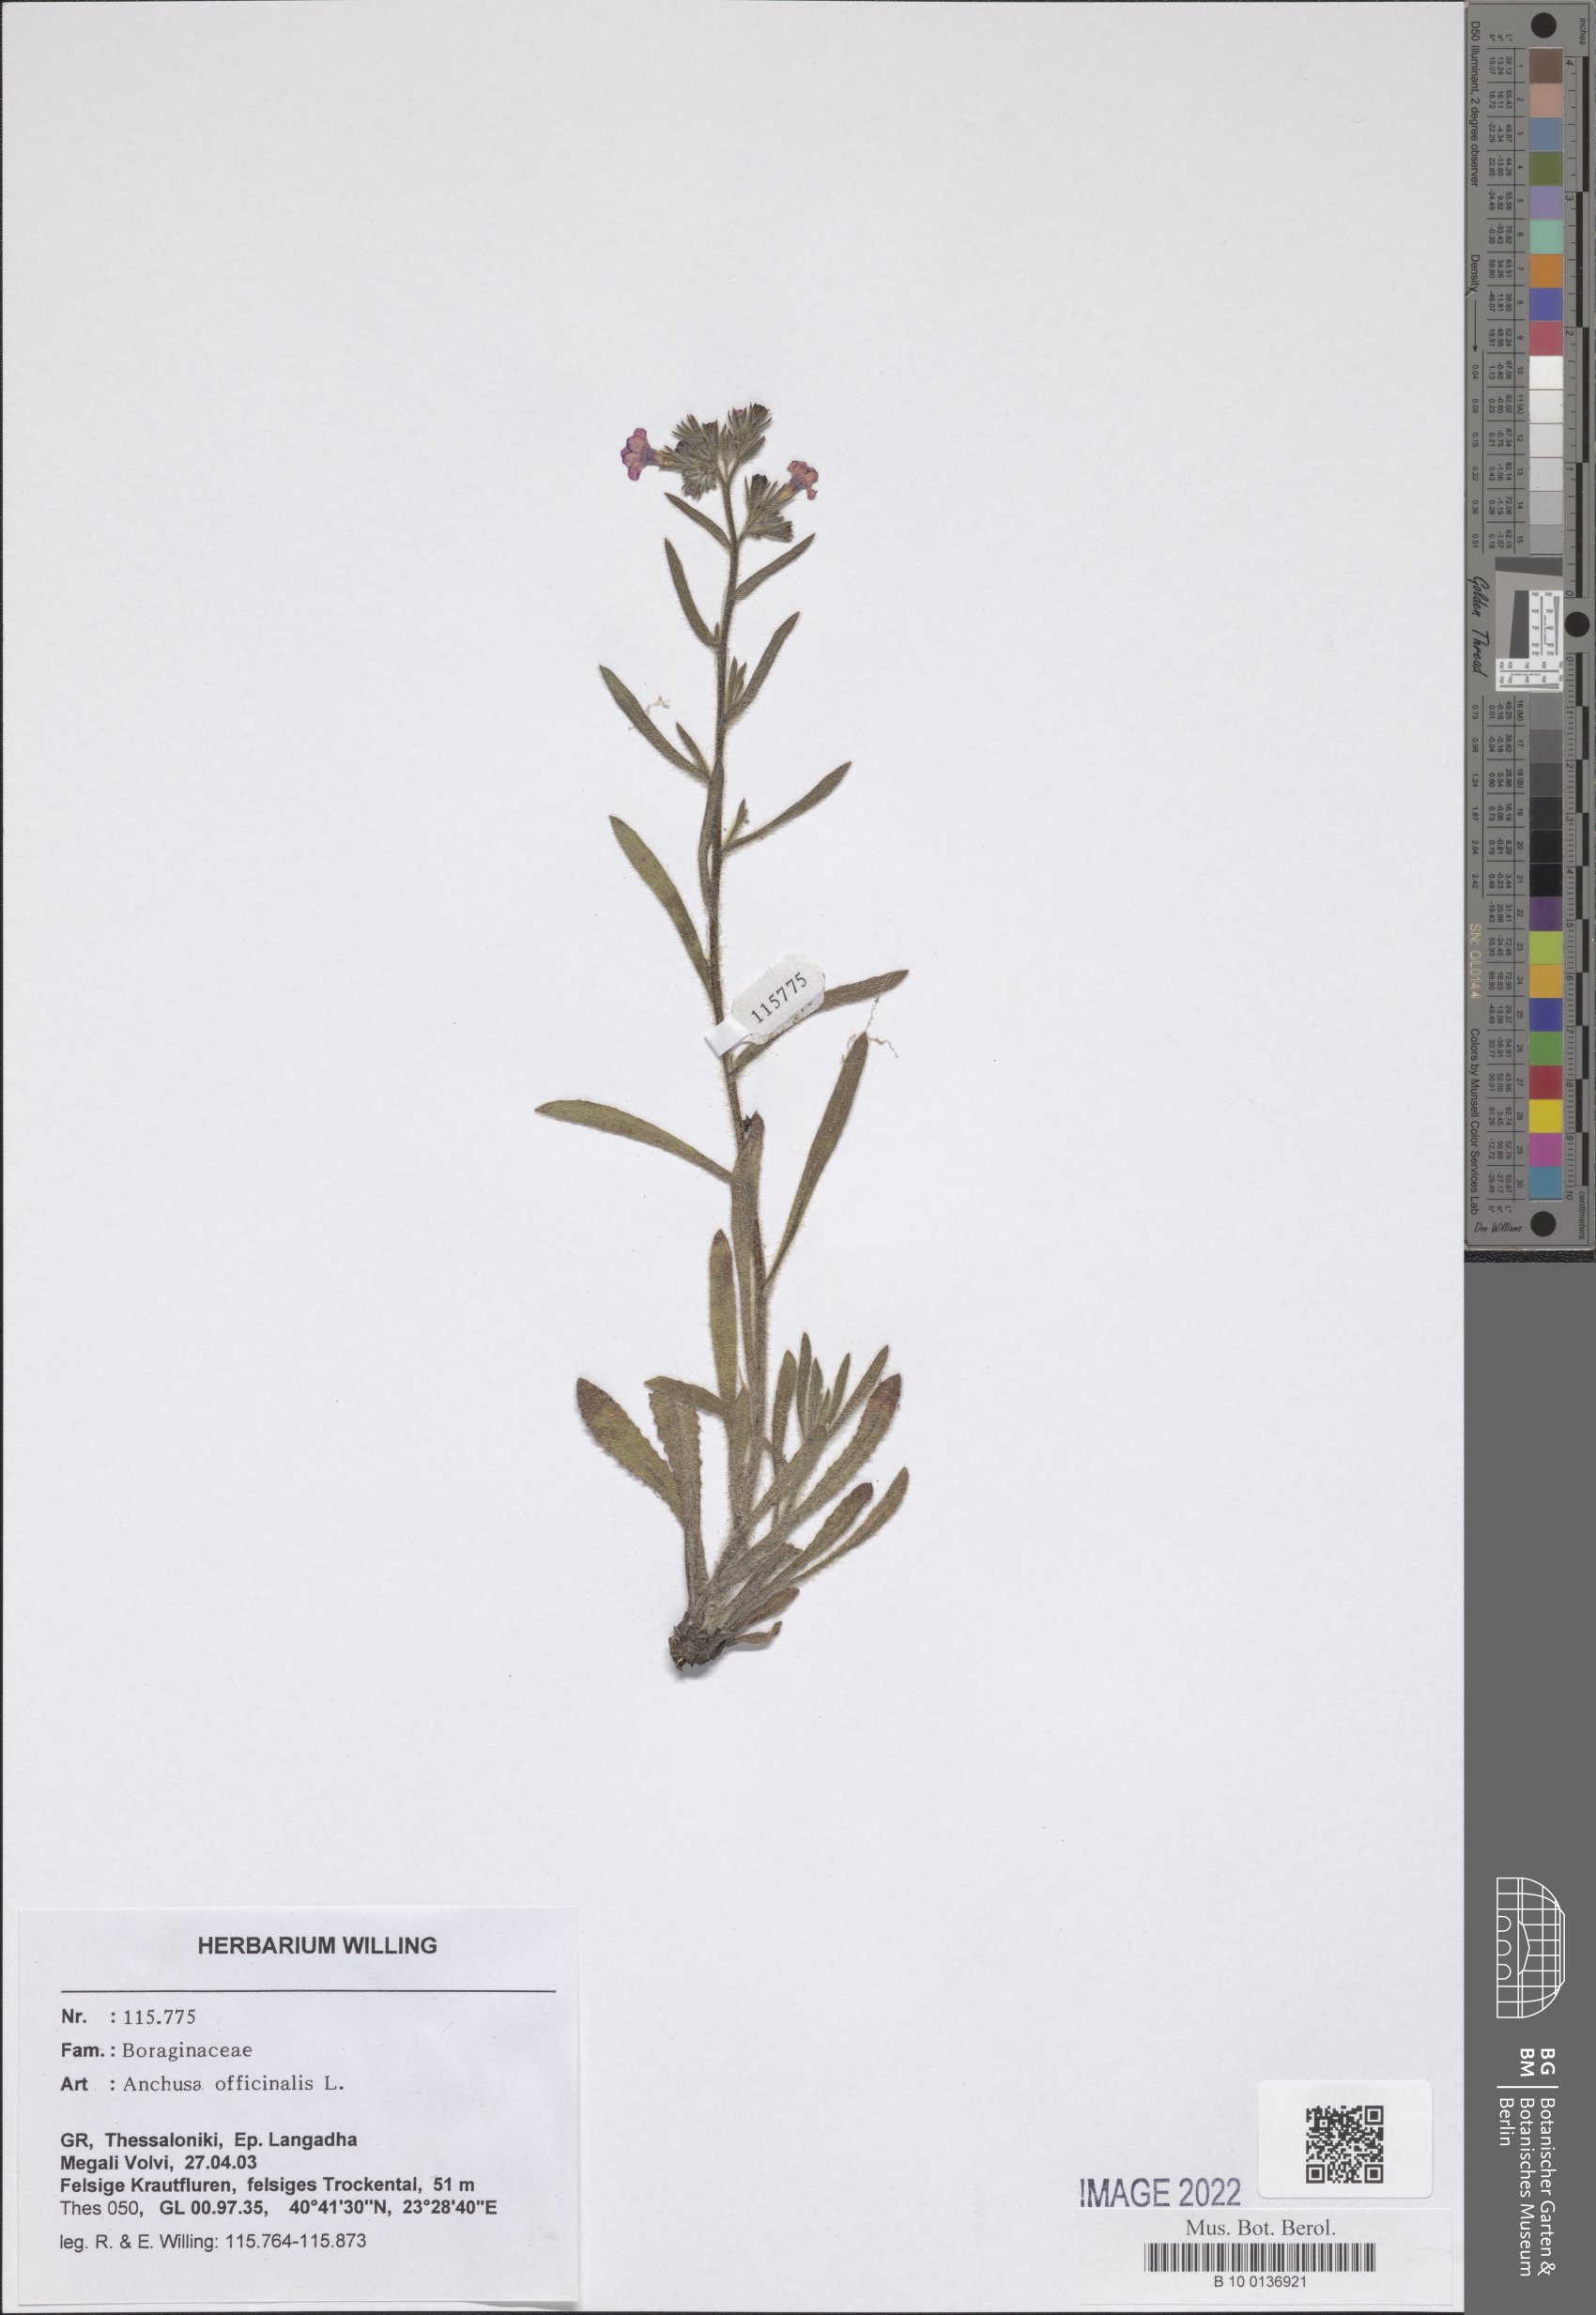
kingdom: Plantae
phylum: Tracheophyta
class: Magnoliopsida
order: Boraginales
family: Boraginaceae
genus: Anchusa
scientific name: Anchusa officinalis
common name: Alkanet
